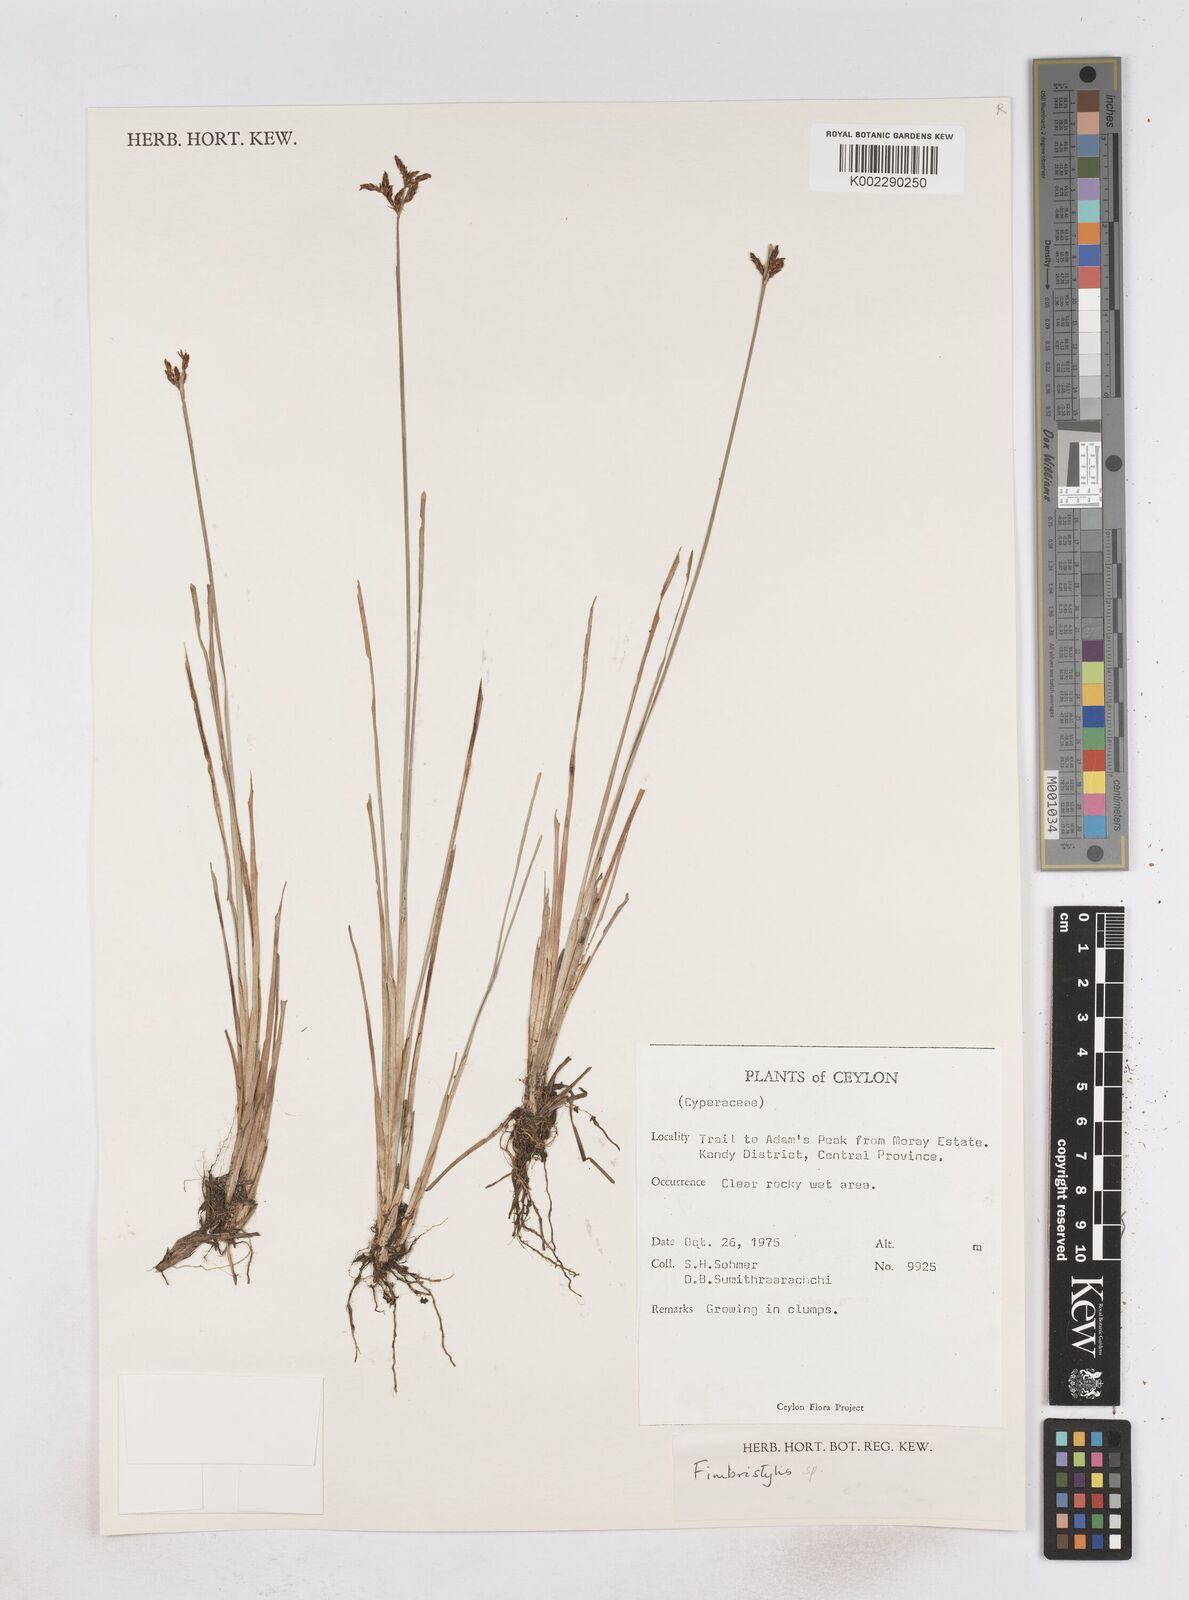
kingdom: Plantae
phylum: Tracheophyta
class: Liliopsida
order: Poales
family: Cyperaceae
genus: Fimbristylis
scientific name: Fimbristylis
